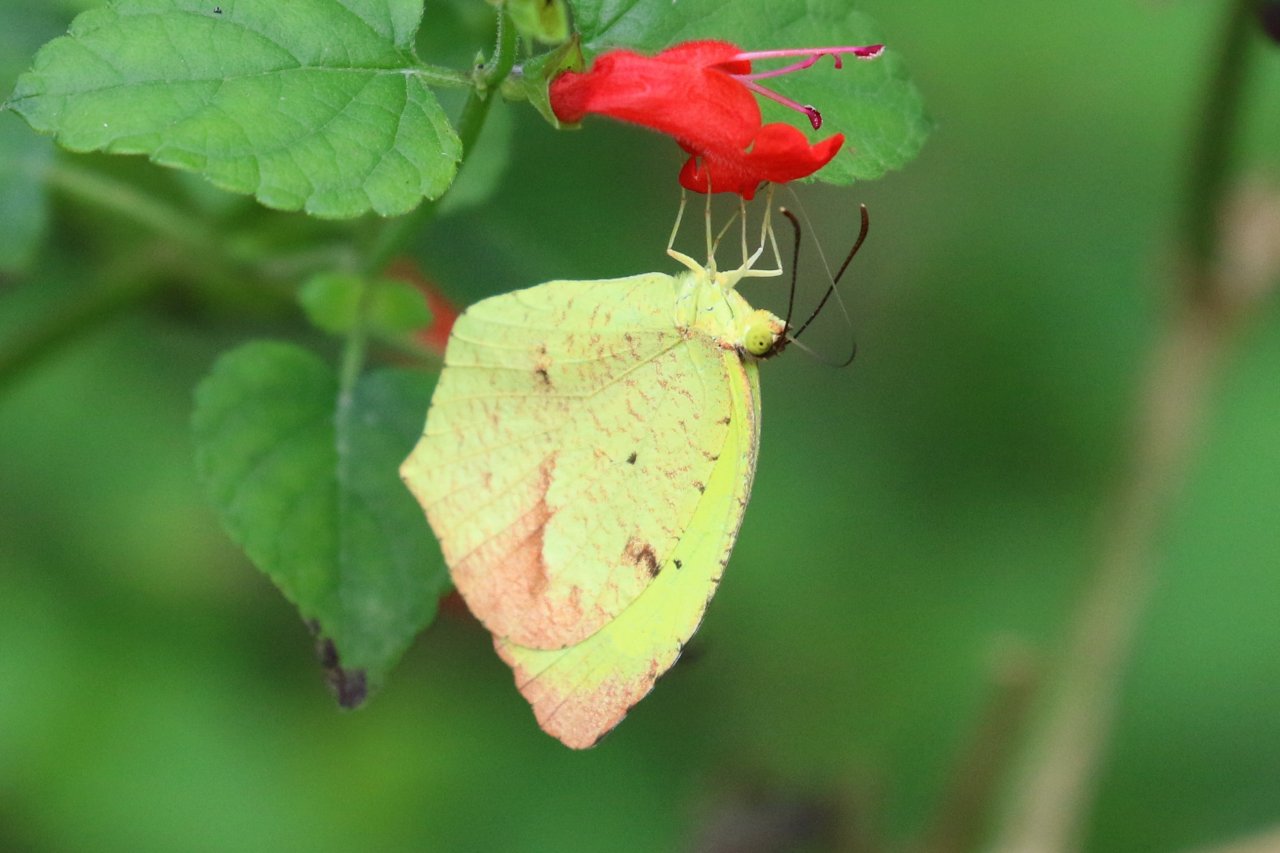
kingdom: Animalia
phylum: Arthropoda
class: Insecta
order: Lepidoptera
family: Pieridae
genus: Eurema
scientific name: Eurema boisduvaliana
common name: Boisduval's Yellow
